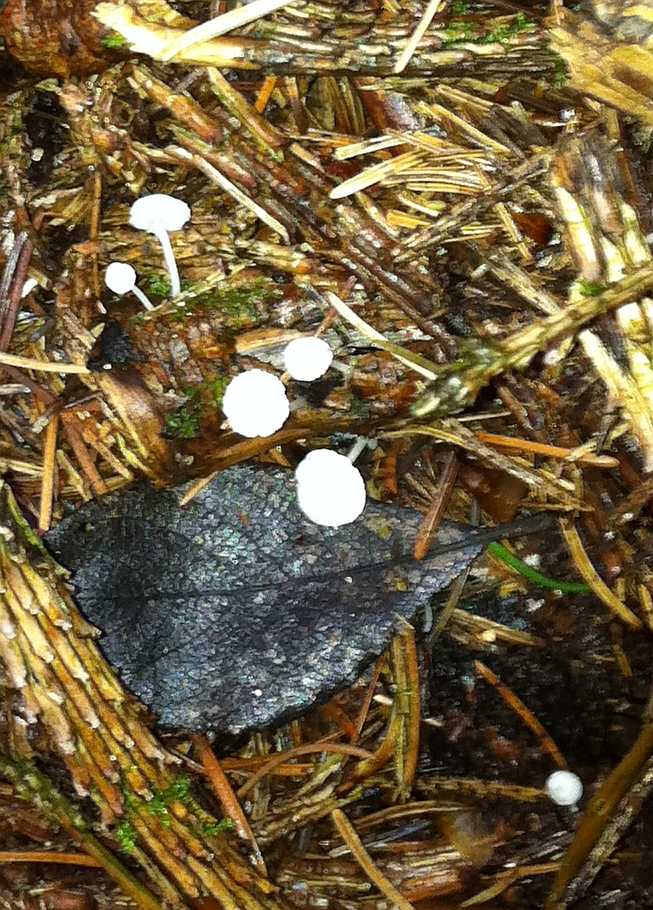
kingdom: Fungi
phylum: Basidiomycota
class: Agaricomycetes
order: Agaricales
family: Mycenaceae
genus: Hemimycena
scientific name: Hemimycena lactea
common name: mælkehvid huesvamp
